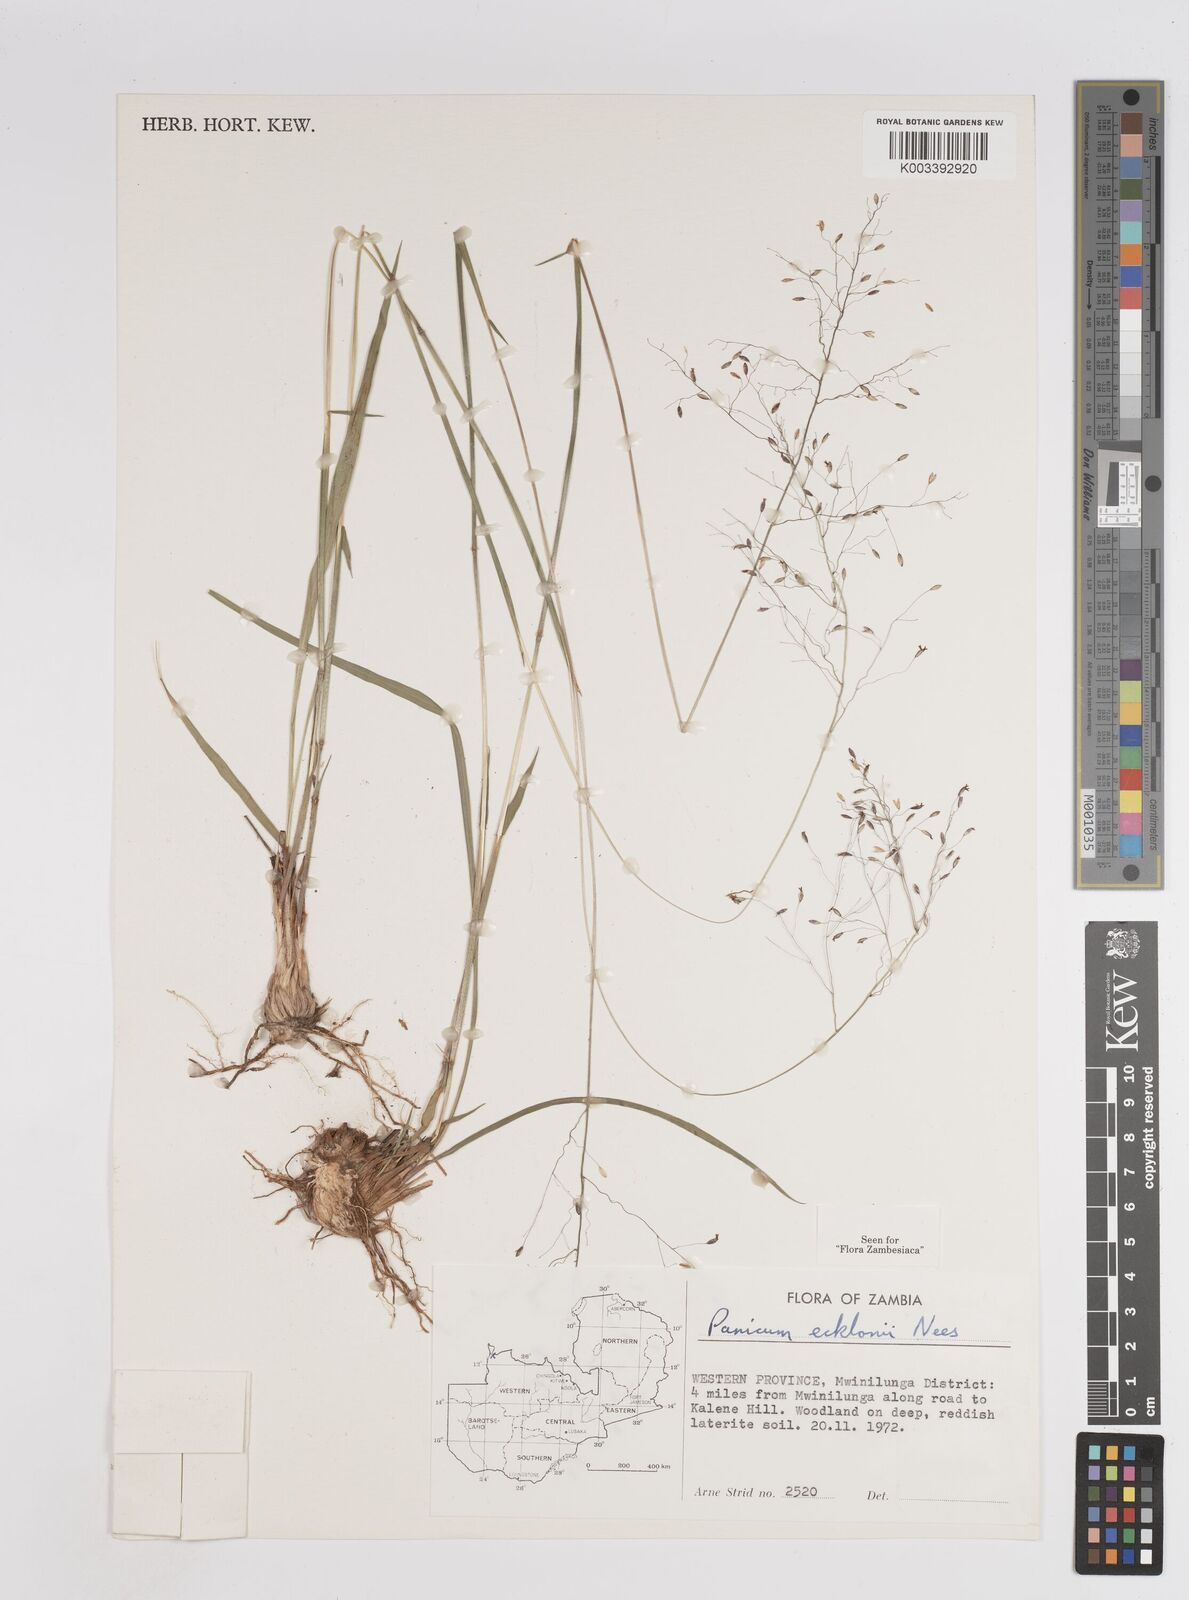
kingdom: Plantae
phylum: Tracheophyta
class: Liliopsida
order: Poales
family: Poaceae
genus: Adenochloa
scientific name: Adenochloa ecklonii
